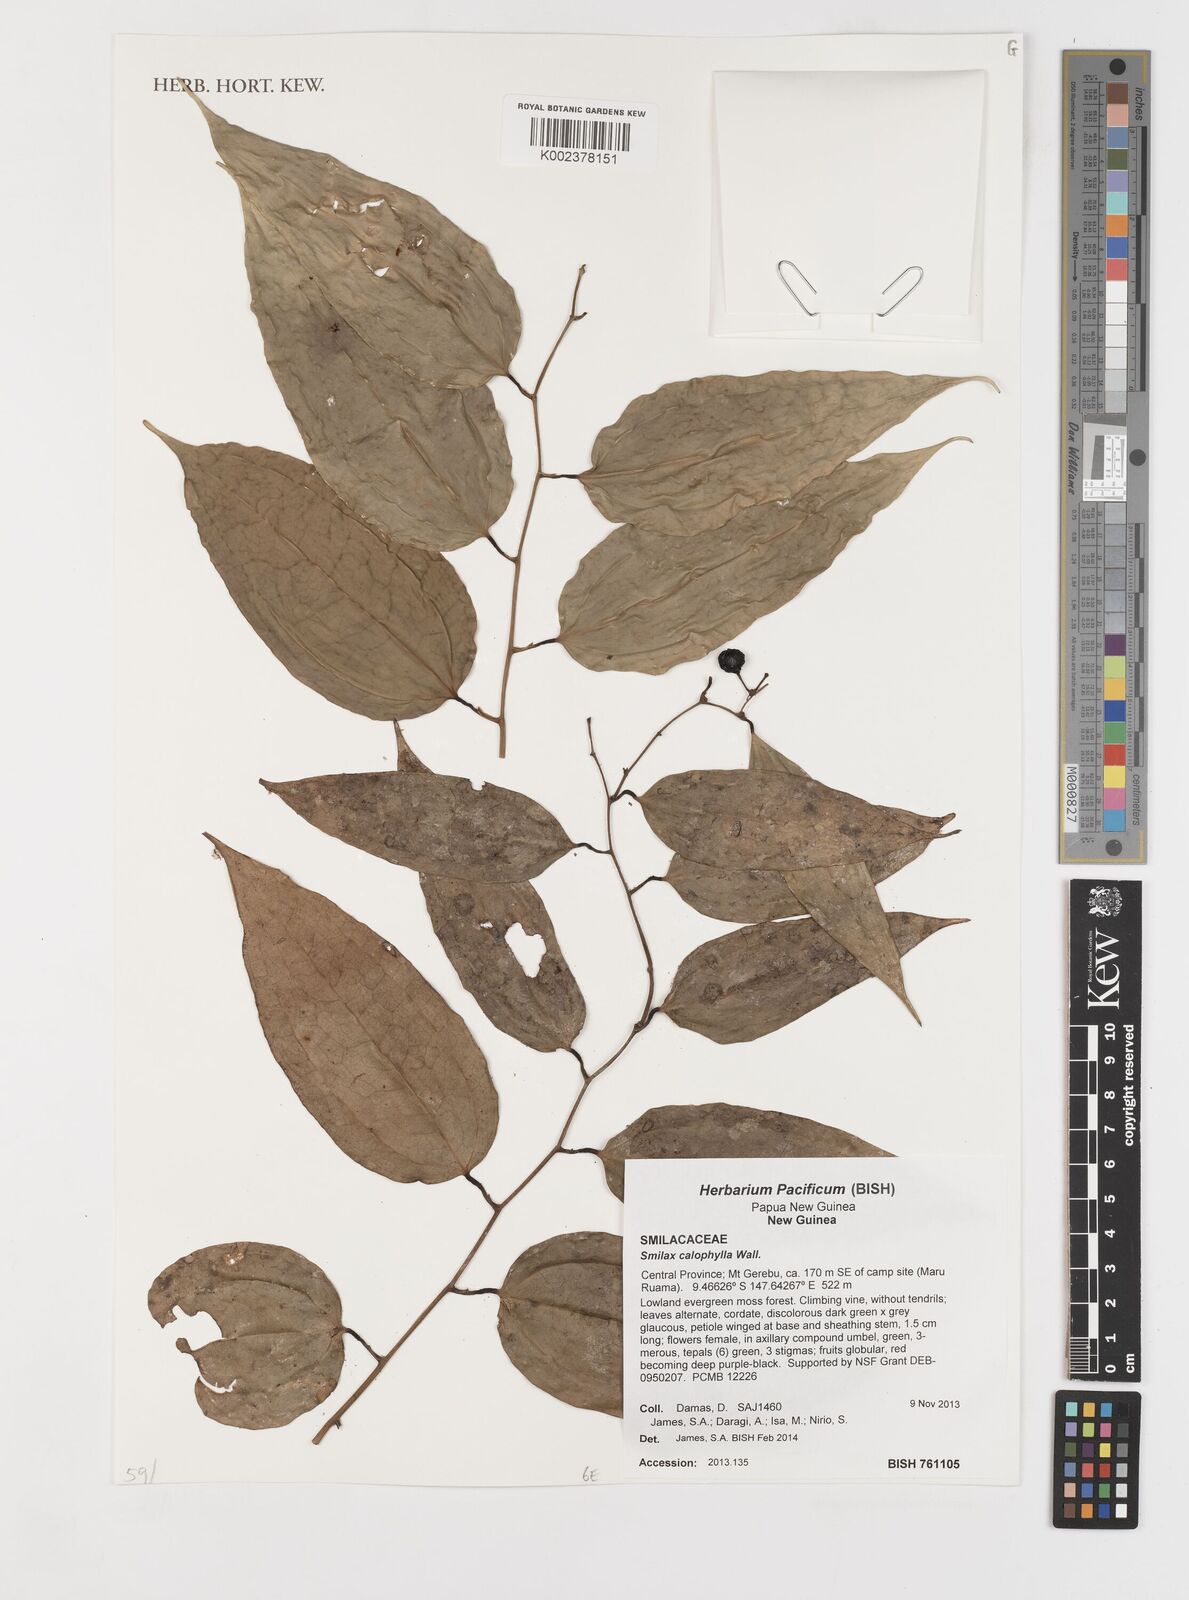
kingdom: Plantae
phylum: Tracheophyta
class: Liliopsida
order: Liliales
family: Smilacaceae
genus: Smilax
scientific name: Smilax calophylla
